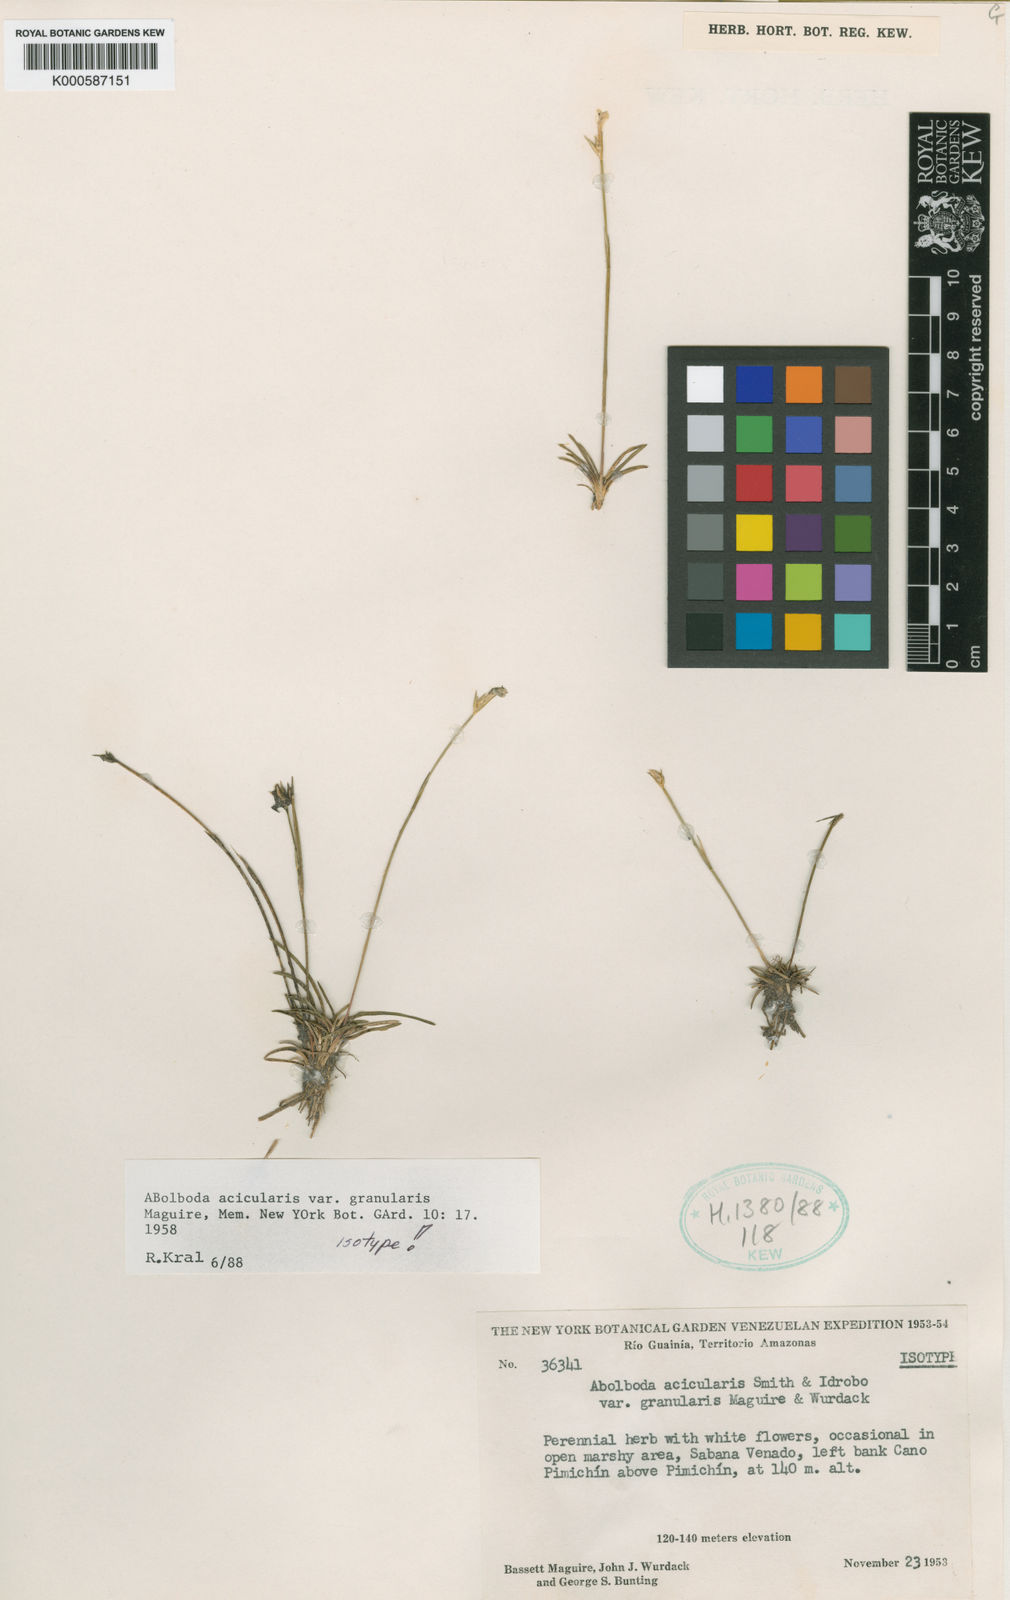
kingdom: Plantae
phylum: Tracheophyta
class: Liliopsida
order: Poales
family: Xyridaceae
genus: Abolboda
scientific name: Abolboda granularis
